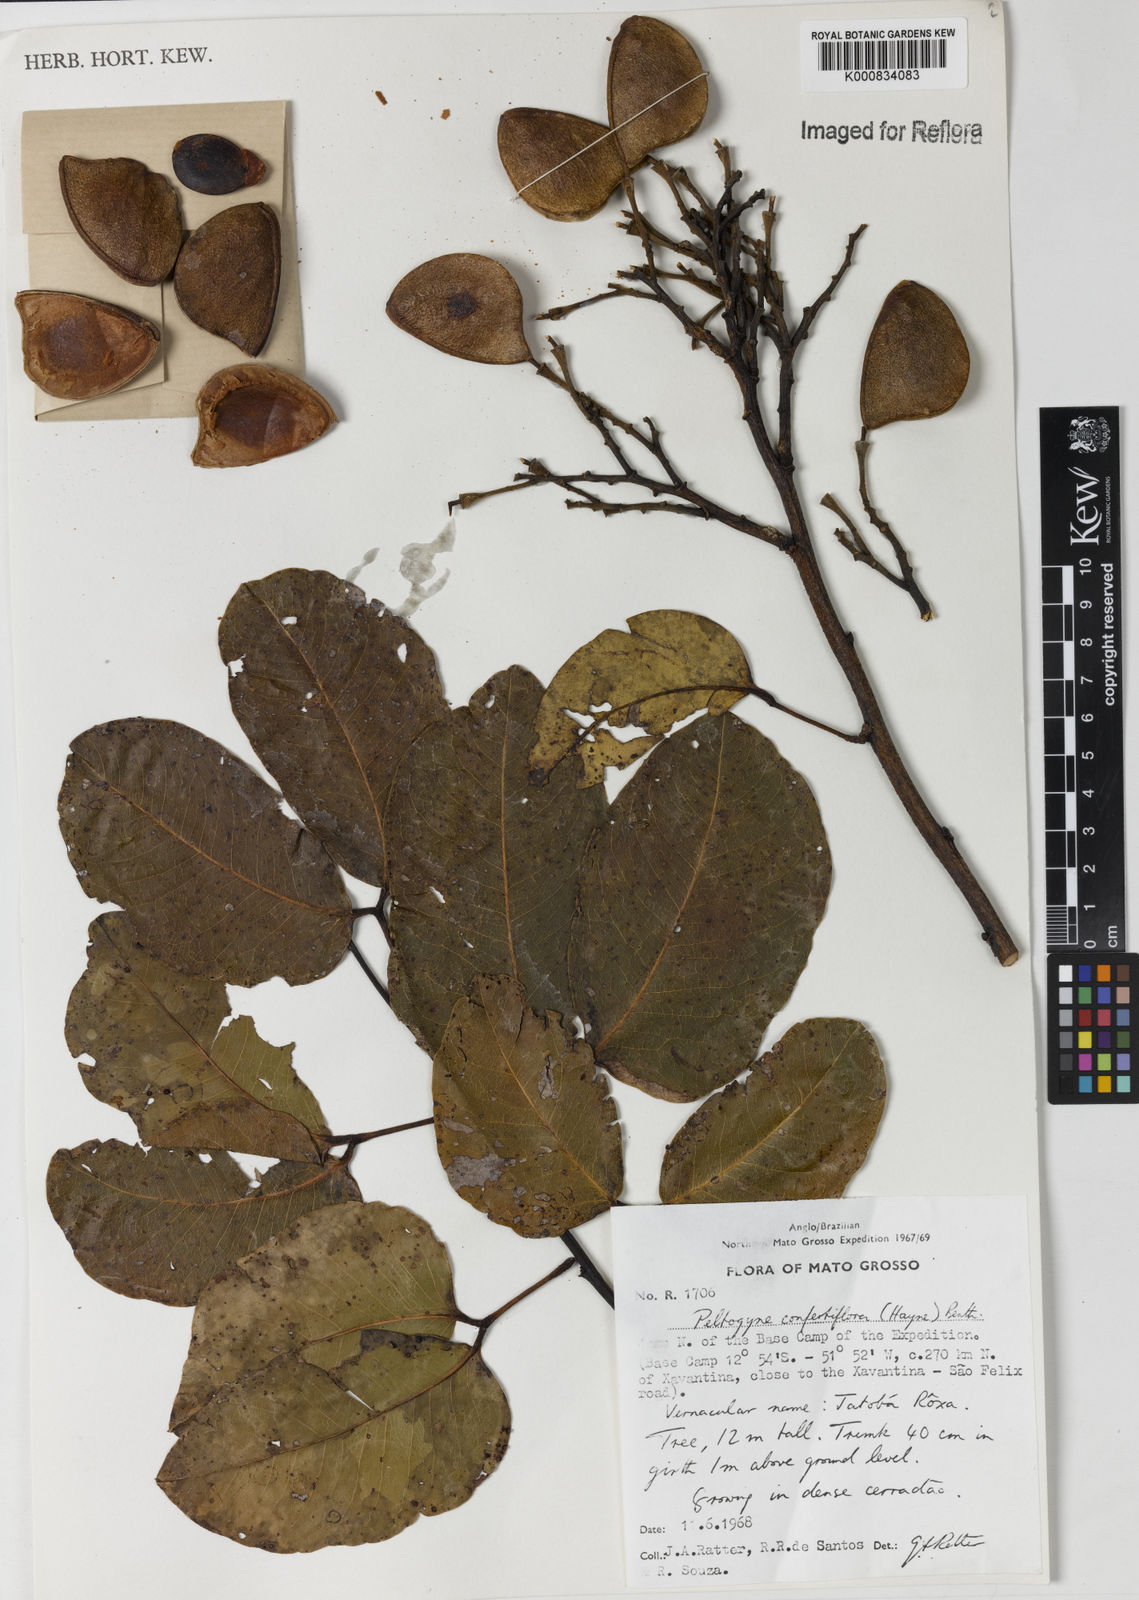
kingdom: Plantae
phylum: Tracheophyta
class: Magnoliopsida
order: Fabales
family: Fabaceae
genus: Peltogyne
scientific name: Peltogyne confertiflora
